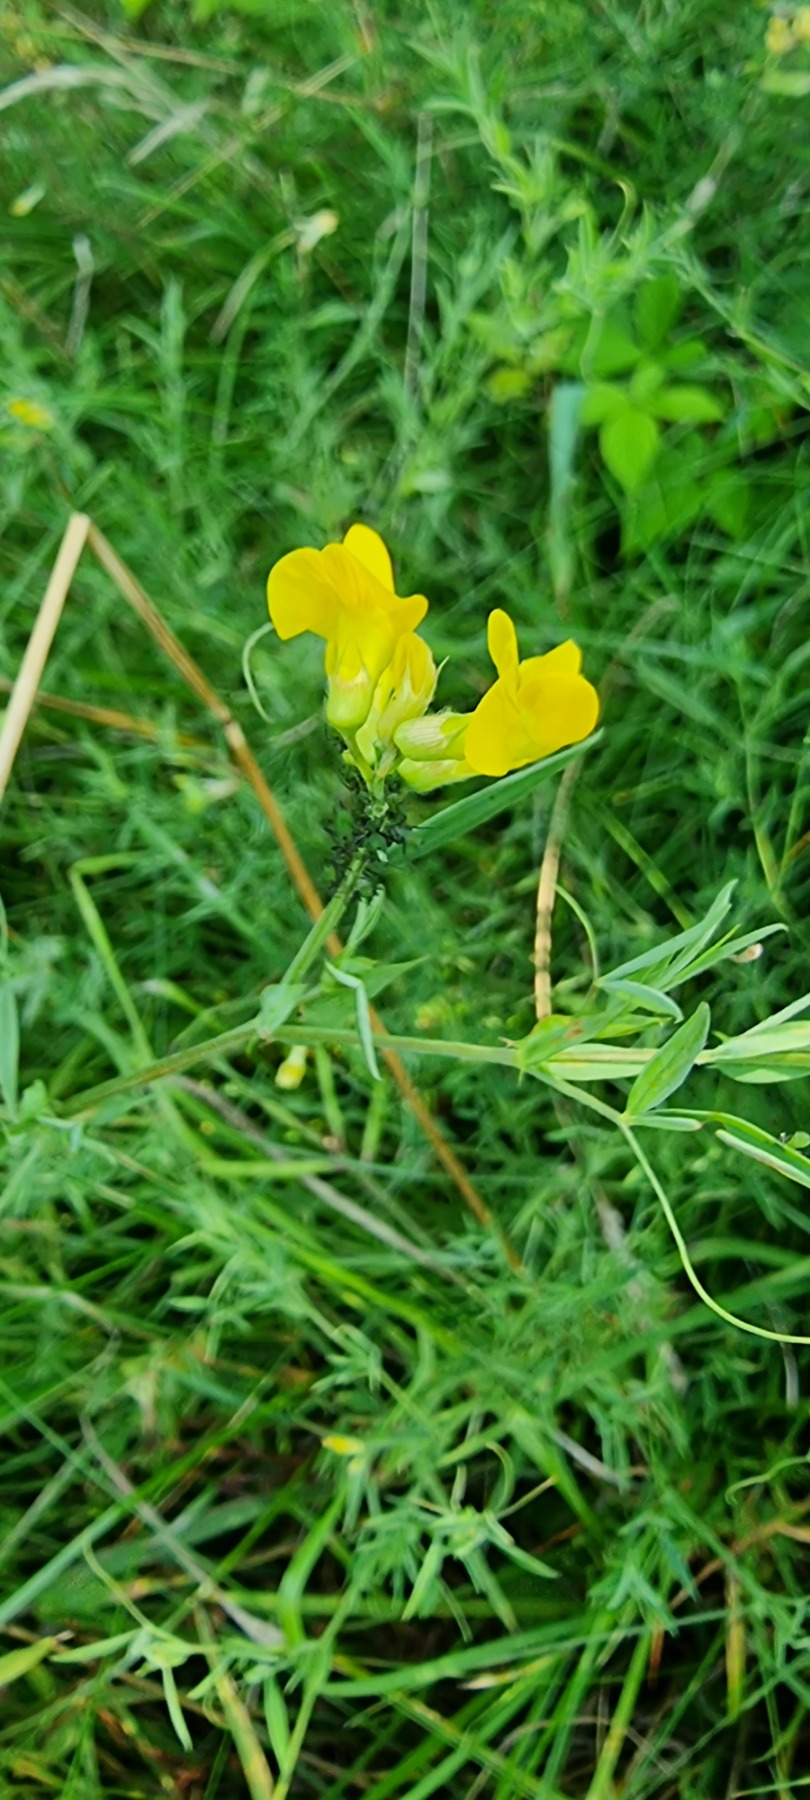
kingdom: Plantae
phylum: Tracheophyta
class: Magnoliopsida
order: Fabales
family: Fabaceae
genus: Lathyrus
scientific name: Lathyrus pratensis
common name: Gul fladbælg
